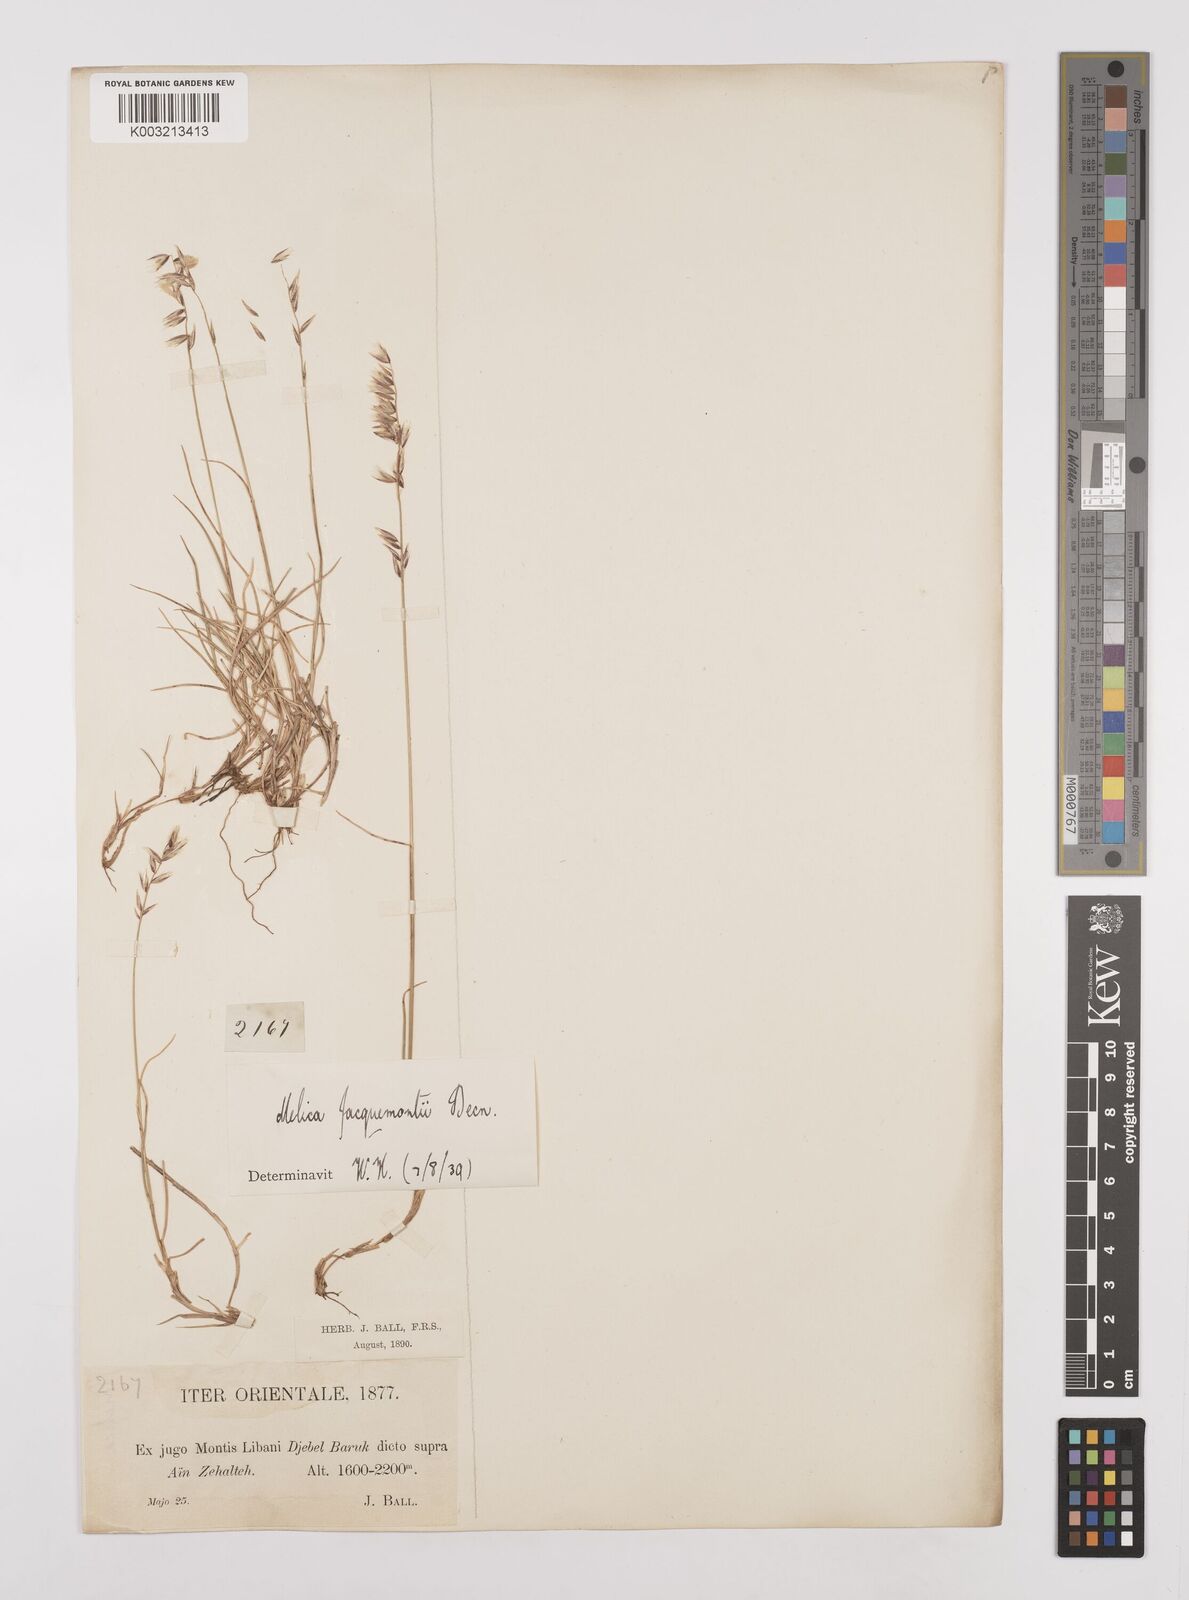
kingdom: Plantae
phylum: Tracheophyta
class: Liliopsida
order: Poales
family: Poaceae
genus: Melica
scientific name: Melica persica
